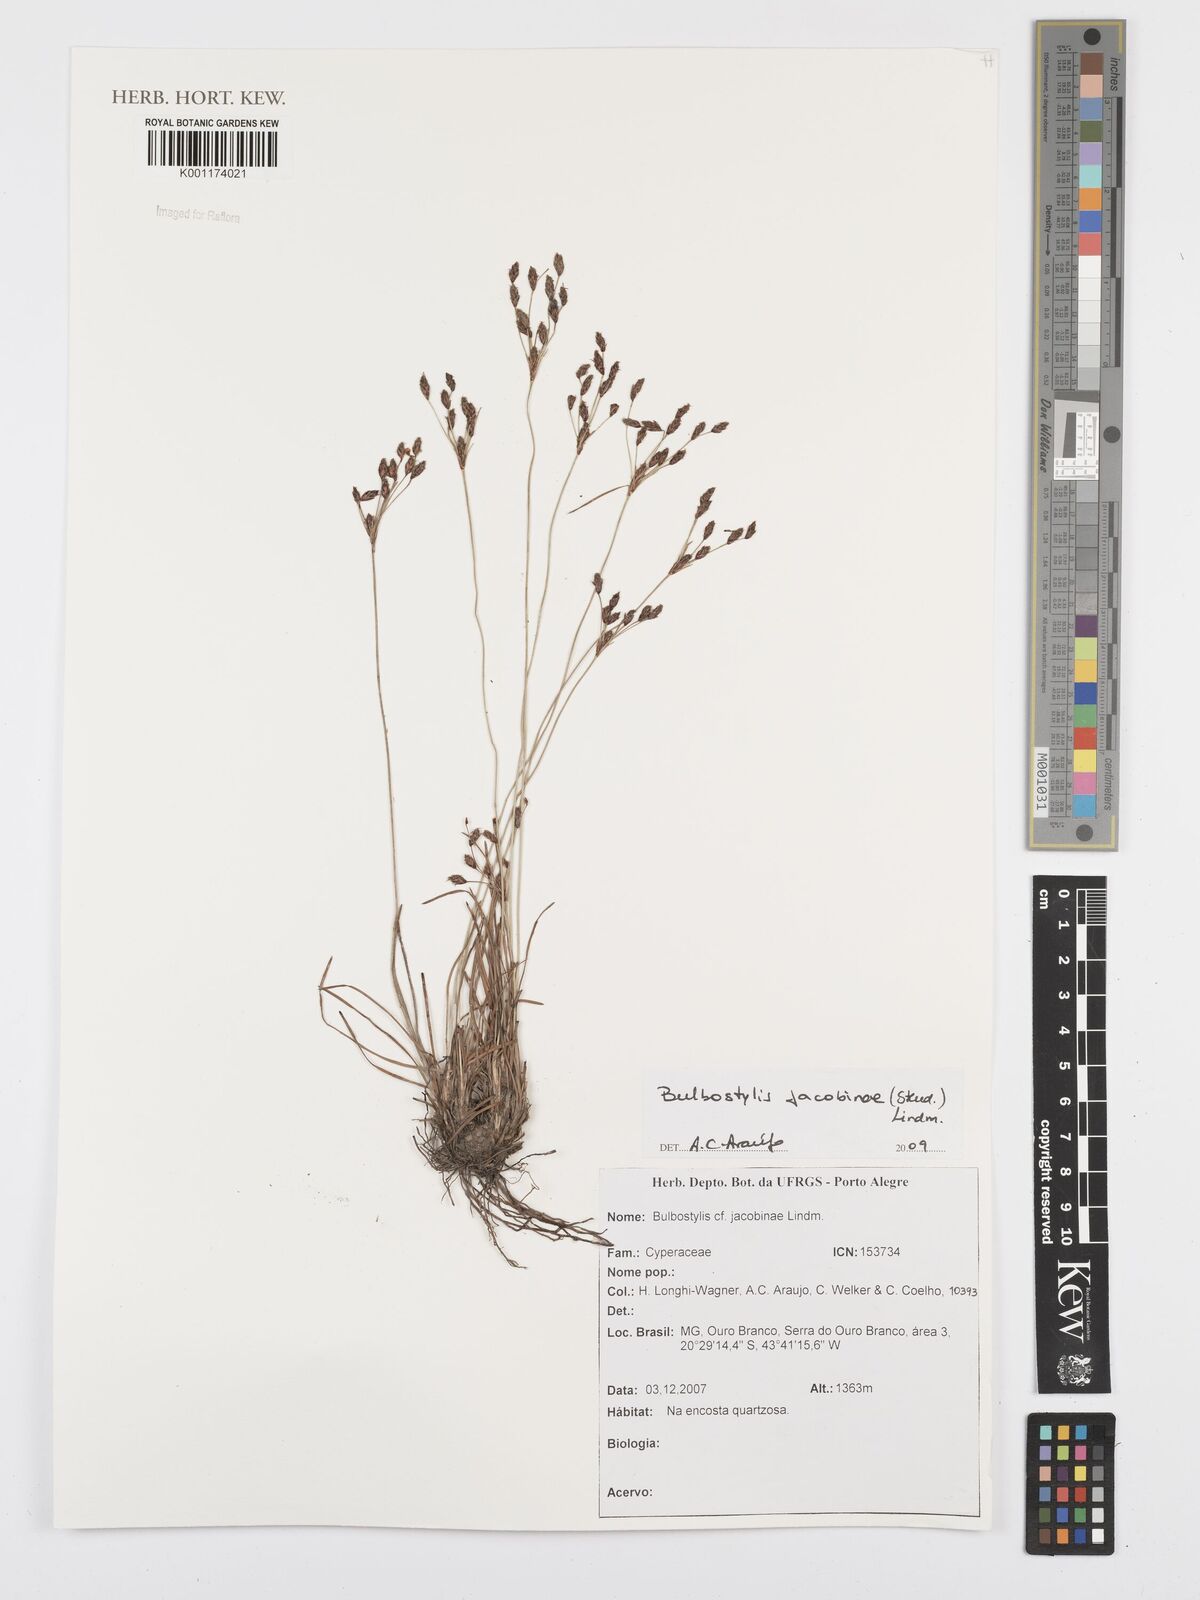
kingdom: Plantae
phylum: Tracheophyta
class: Liliopsida
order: Poales
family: Cyperaceae
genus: Bulbostylis
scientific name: Bulbostylis jacobinae
